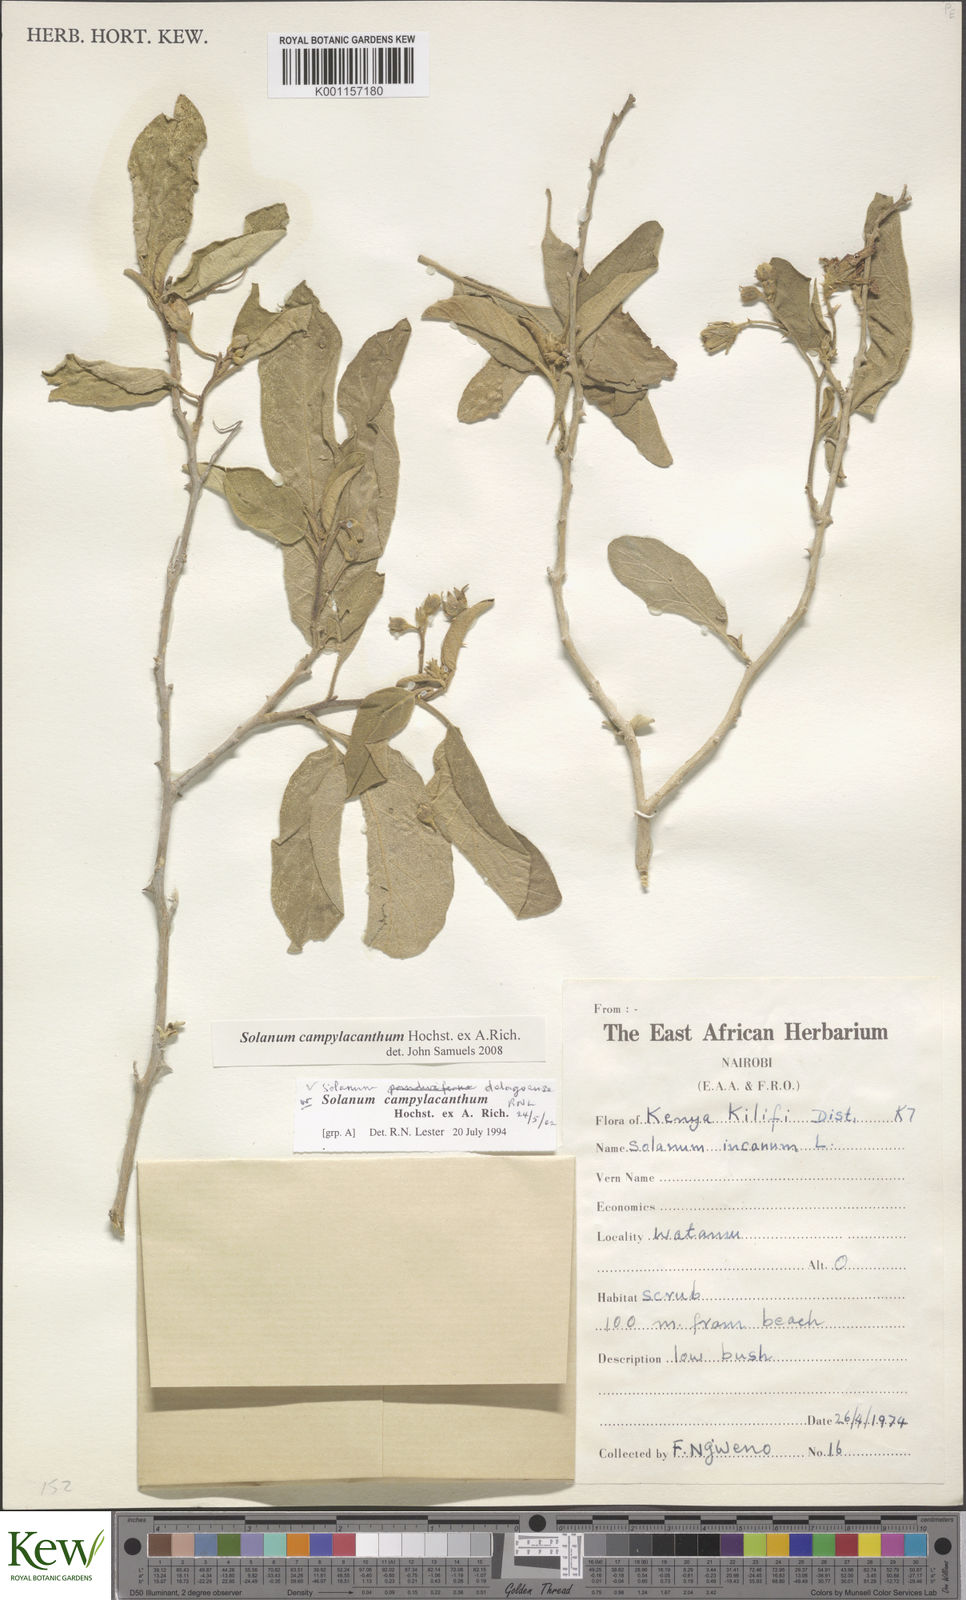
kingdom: Plantae
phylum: Tracheophyta
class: Magnoliopsida
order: Solanales
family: Solanaceae
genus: Solanum
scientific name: Solanum campylacanthum
